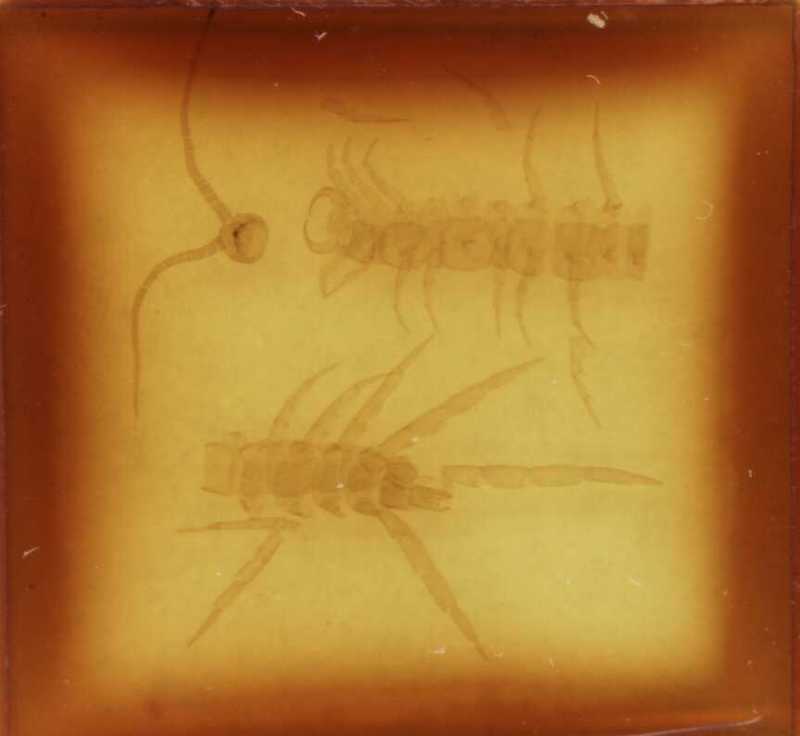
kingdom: Animalia
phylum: Arthropoda
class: Chilopoda
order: Lithobiomorpha
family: Lithobiidae
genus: Harpolithobius
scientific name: Harpolithobius gottscheensis
